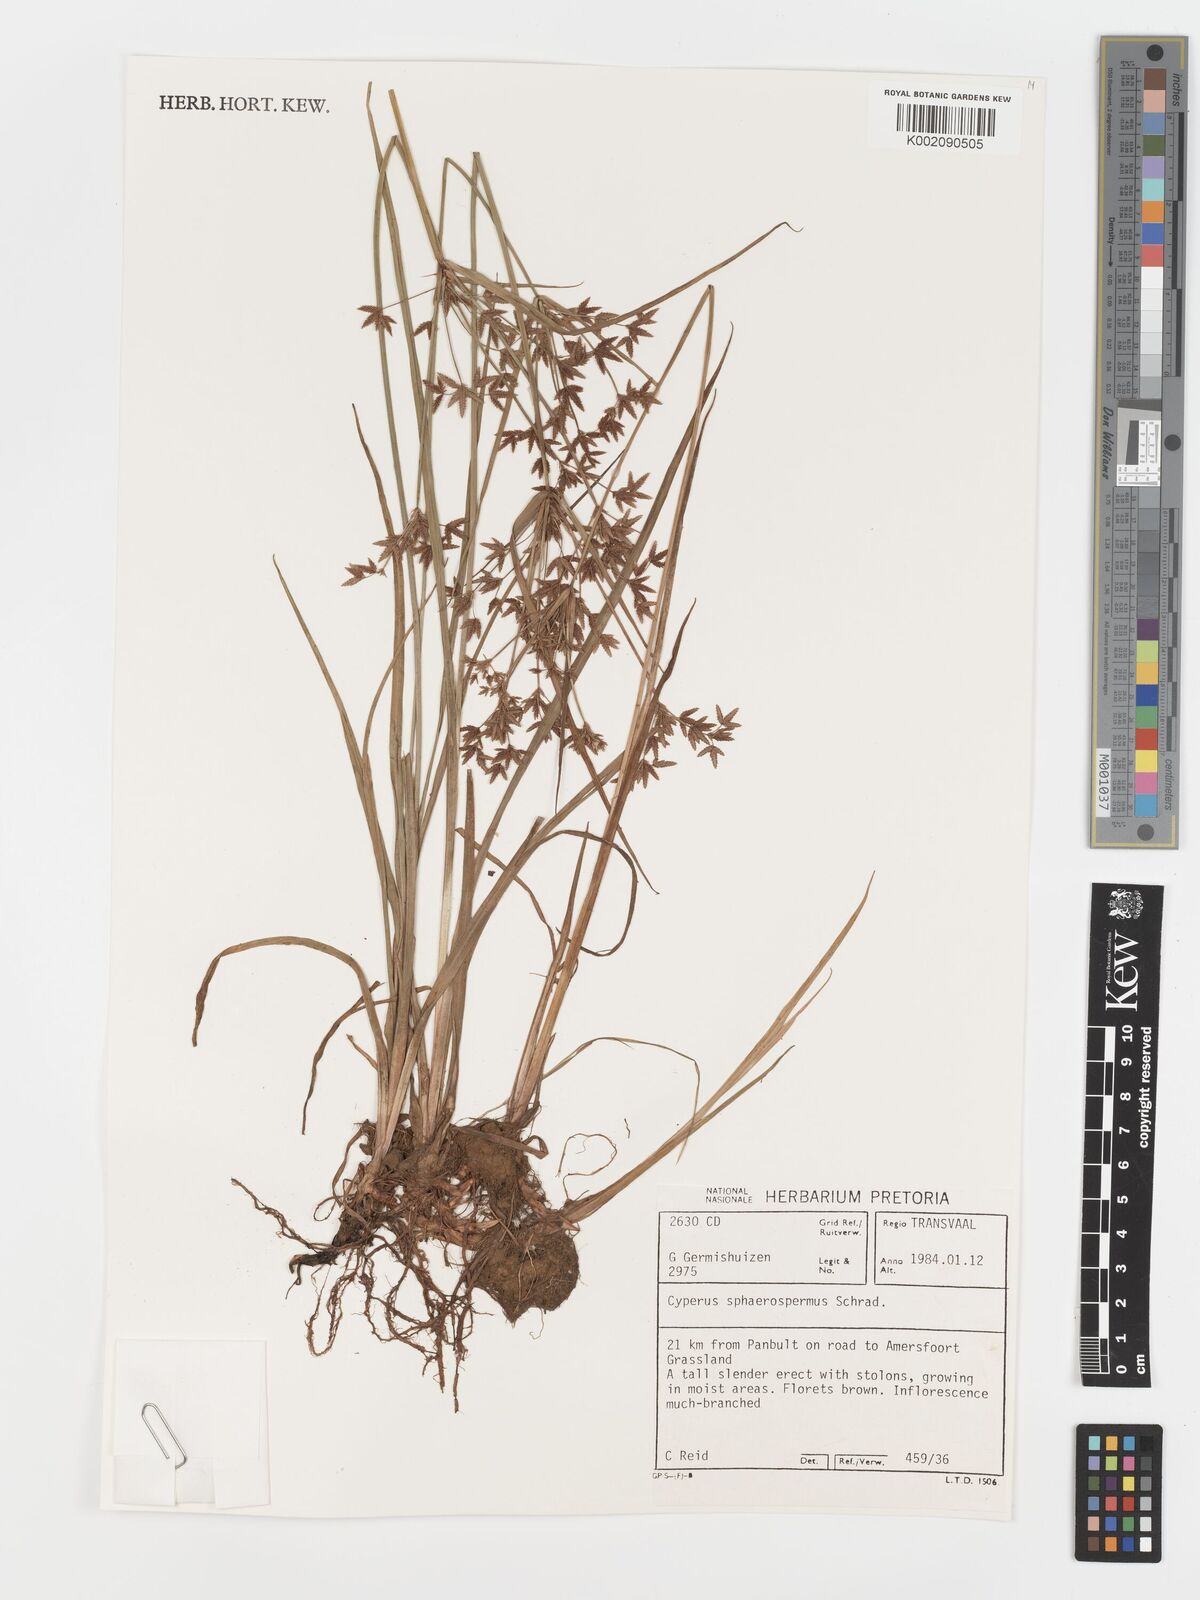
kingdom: Plantae
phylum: Tracheophyta
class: Liliopsida
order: Poales
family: Cyperaceae
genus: Cyperus
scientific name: Cyperus sphaerospermus
